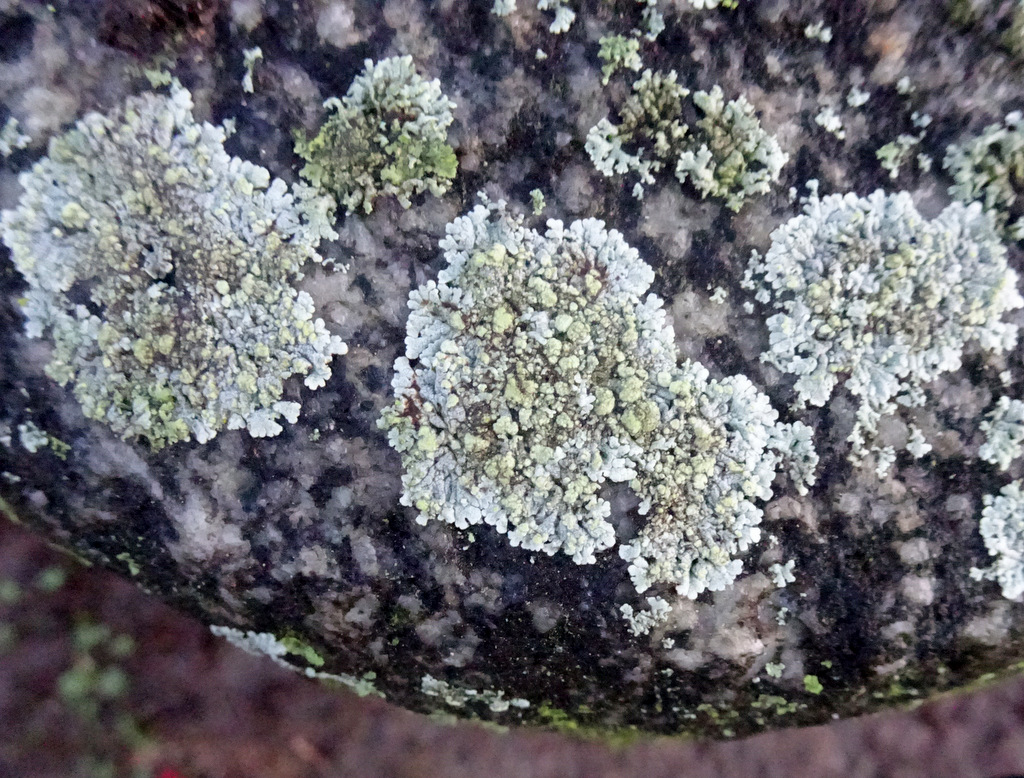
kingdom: Fungi
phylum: Ascomycota
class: Lecanoromycetes
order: Caliciales
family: Physciaceae
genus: Physcia
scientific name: Physcia caesia
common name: blågrå rosetlav
